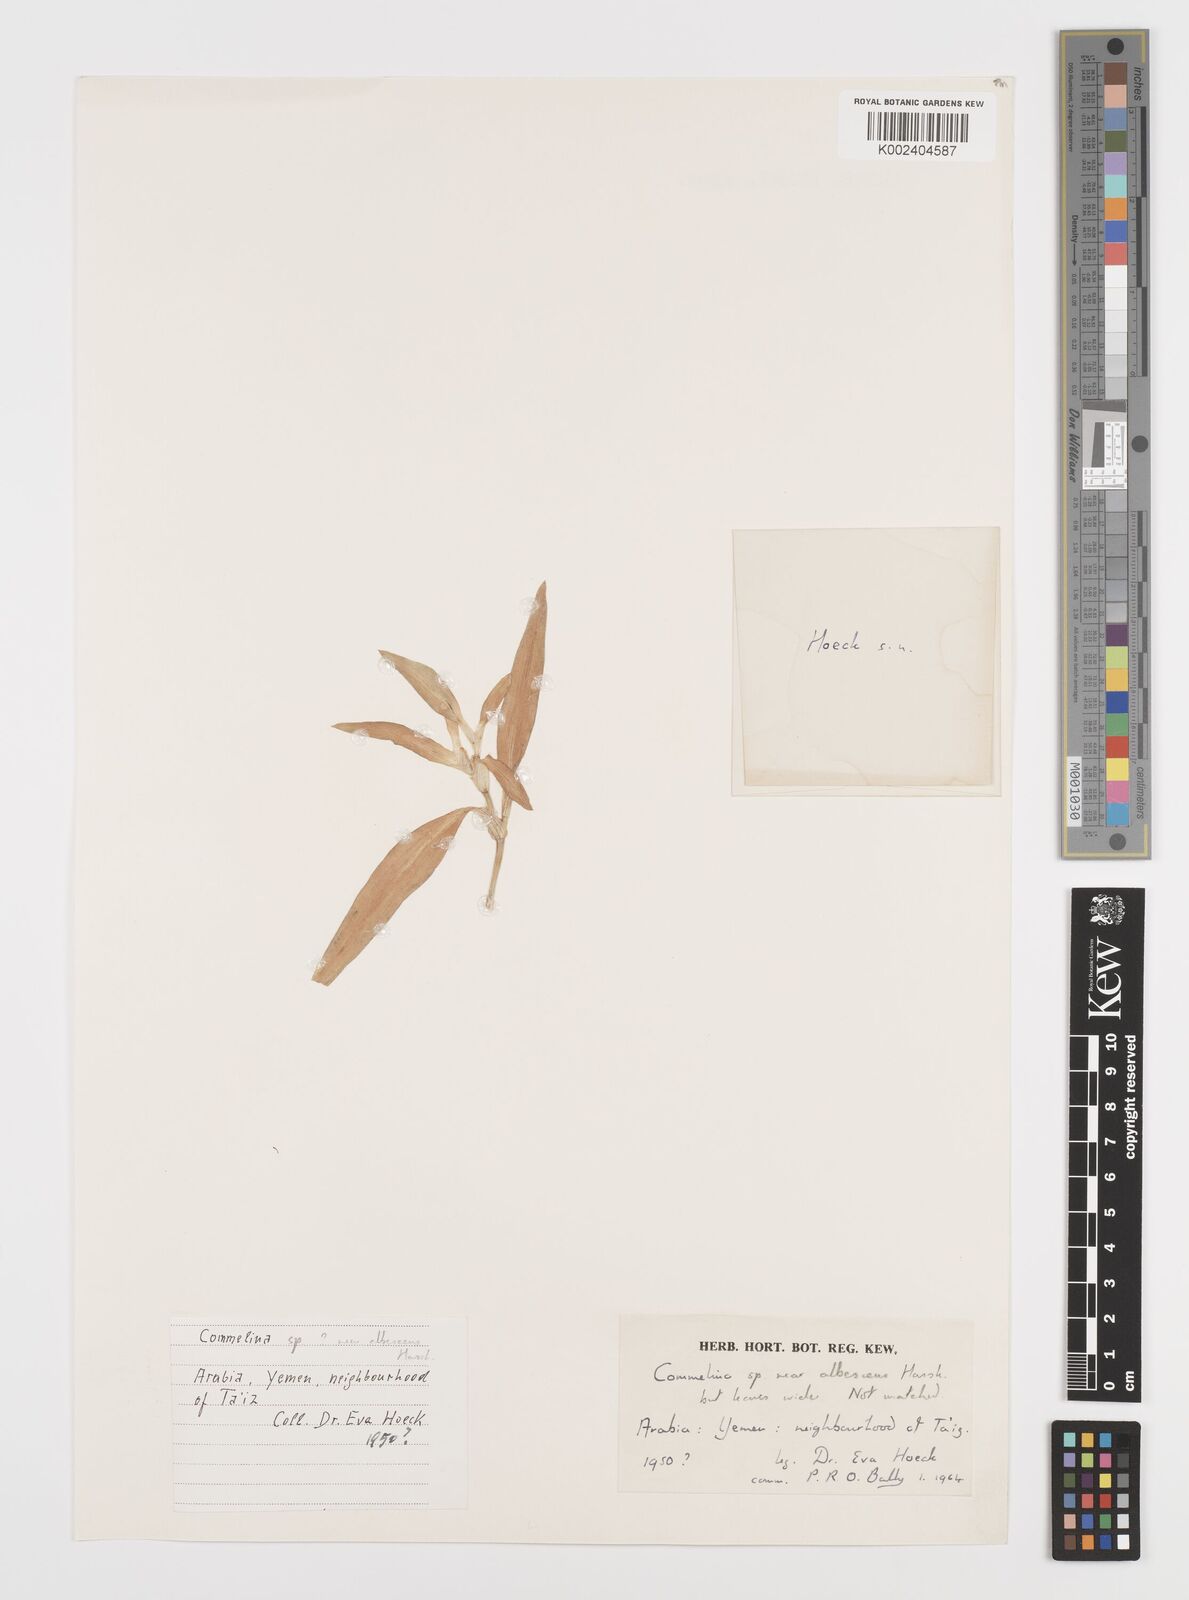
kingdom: Plantae
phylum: Tracheophyta
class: Liliopsida
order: Commelinales
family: Commelinaceae
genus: Commelina
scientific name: Commelina albescens
